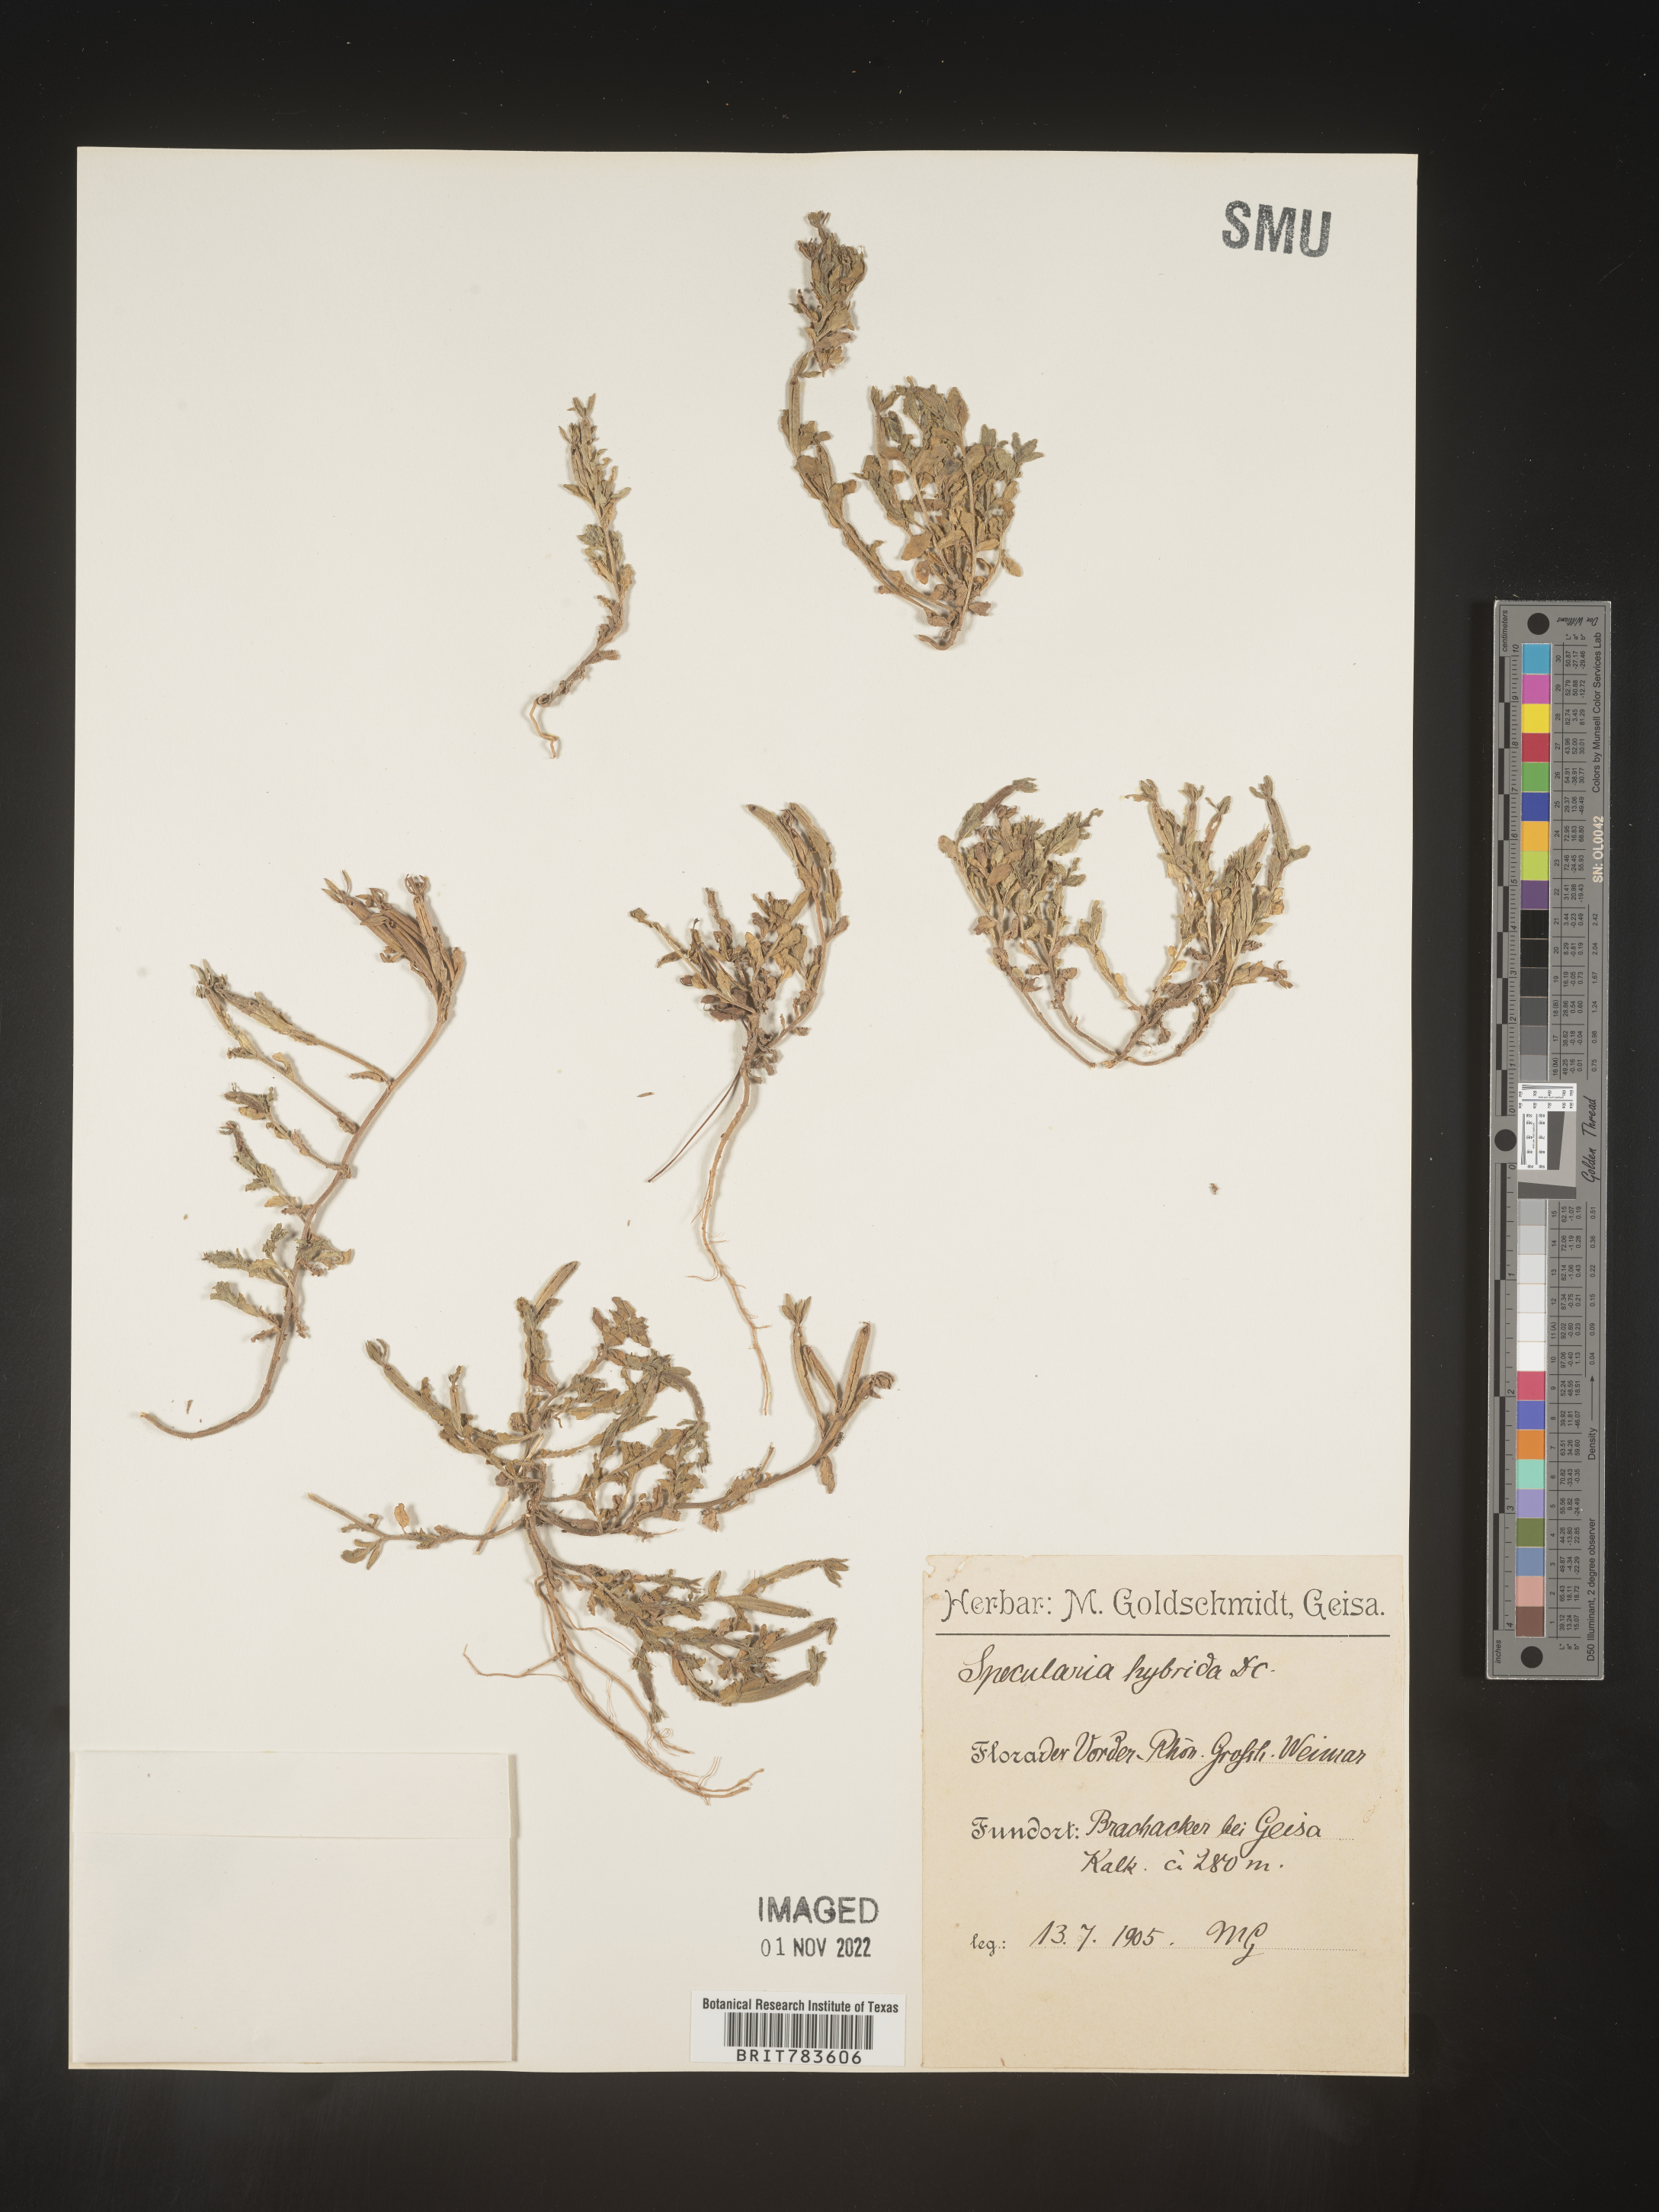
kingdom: Plantae
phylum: Tracheophyta
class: Magnoliopsida
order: Asterales
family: Campanulaceae
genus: Specularia
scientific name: Specularia
